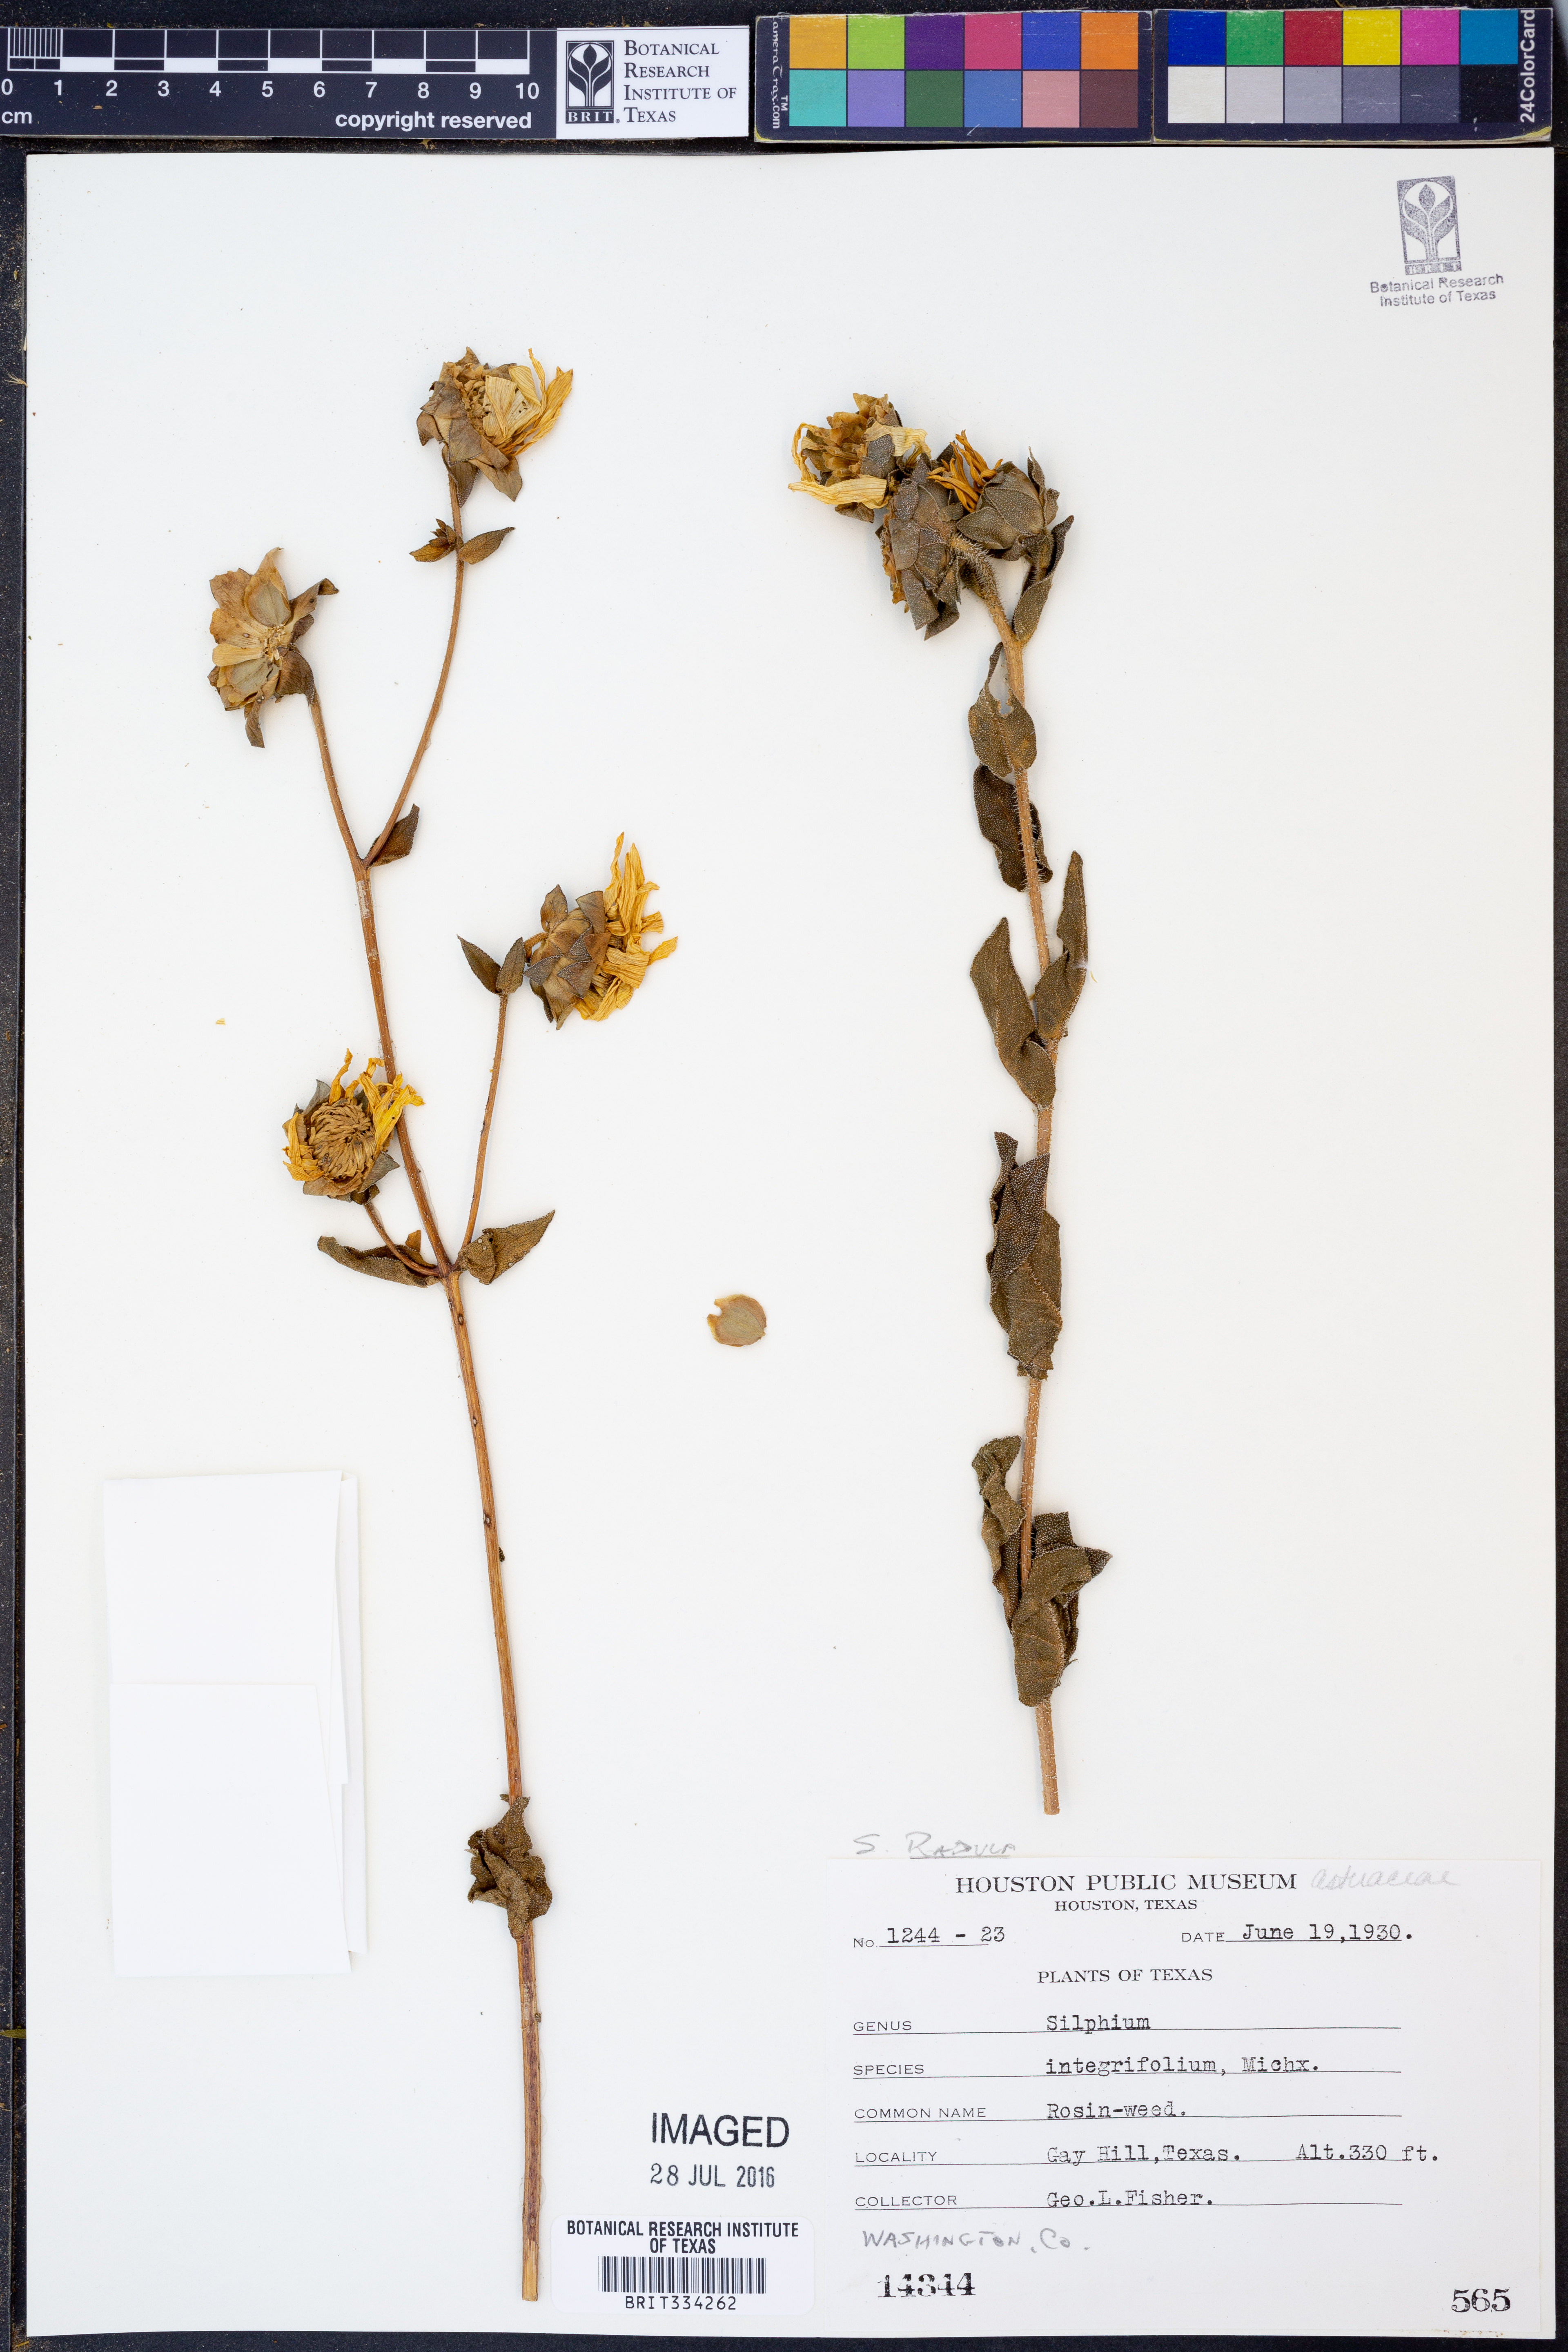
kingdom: Plantae
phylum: Tracheophyta
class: Magnoliopsida
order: Asterales
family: Asteraceae
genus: Silphium
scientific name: Silphium radula
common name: Roughleaf rosinweed
